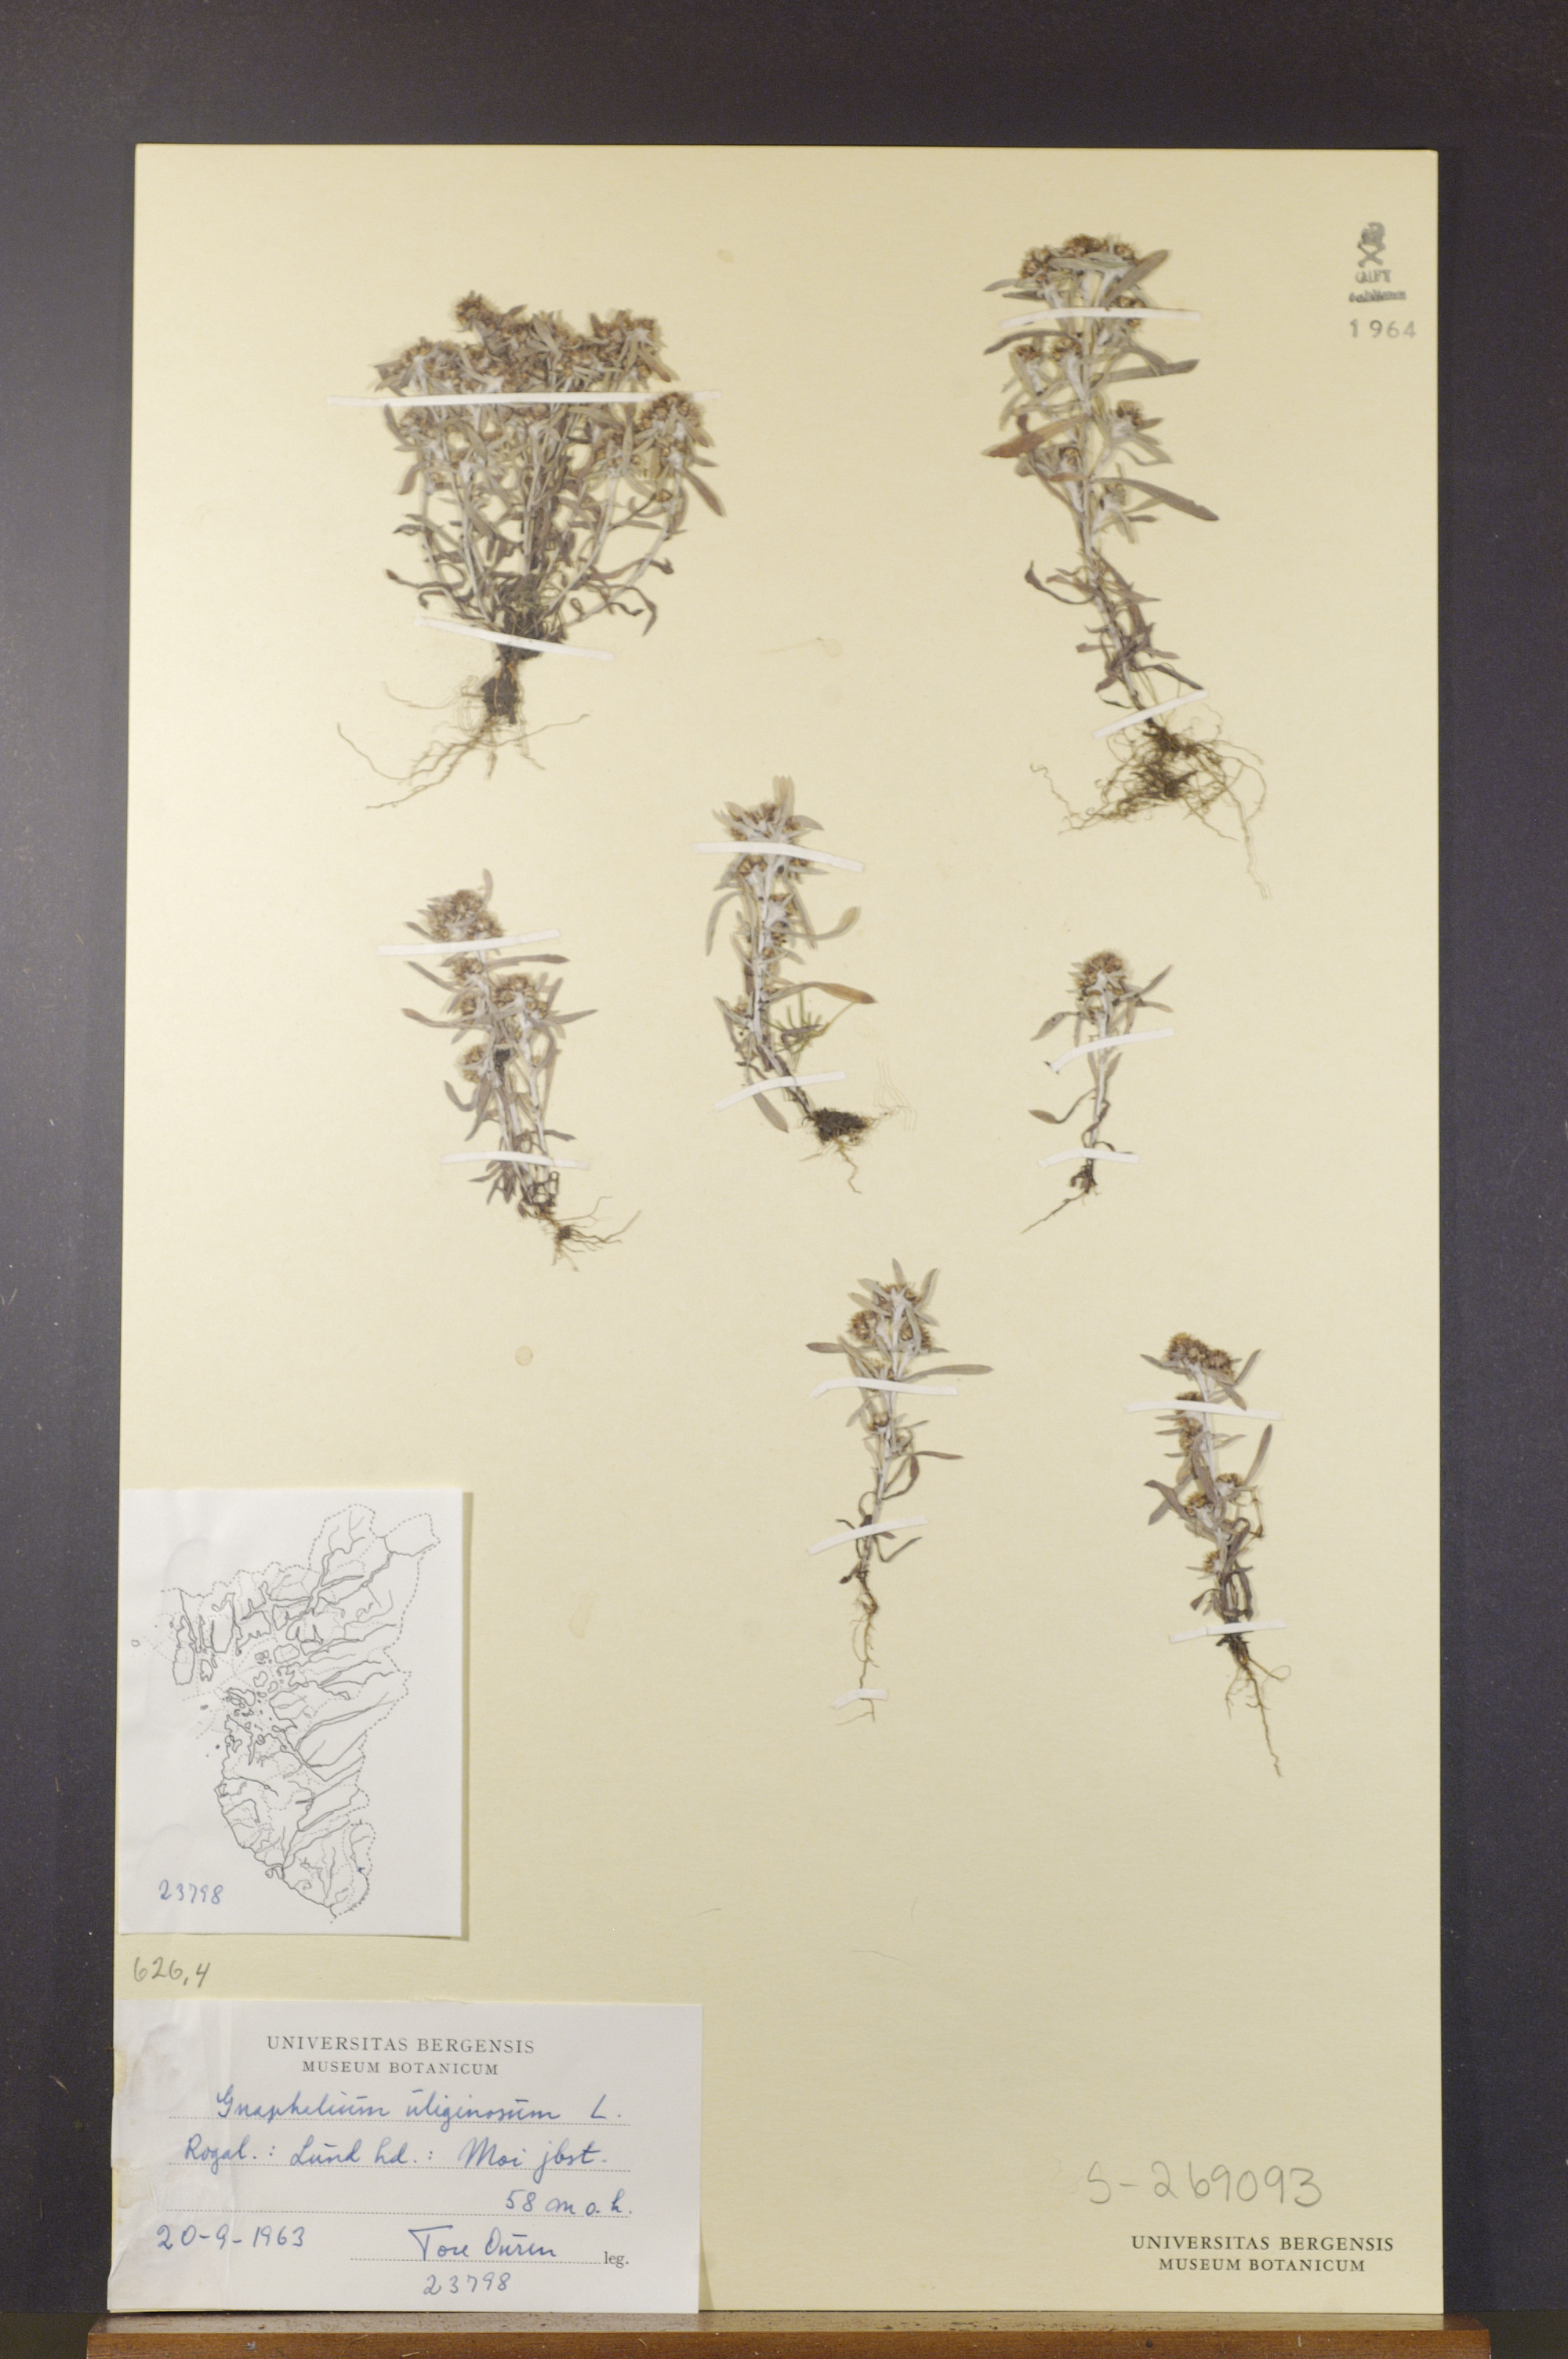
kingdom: Plantae
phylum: Tracheophyta
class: Magnoliopsida
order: Asterales
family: Asteraceae
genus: Gnaphalium
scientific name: Gnaphalium uliginosum
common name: Marsh cudweed
